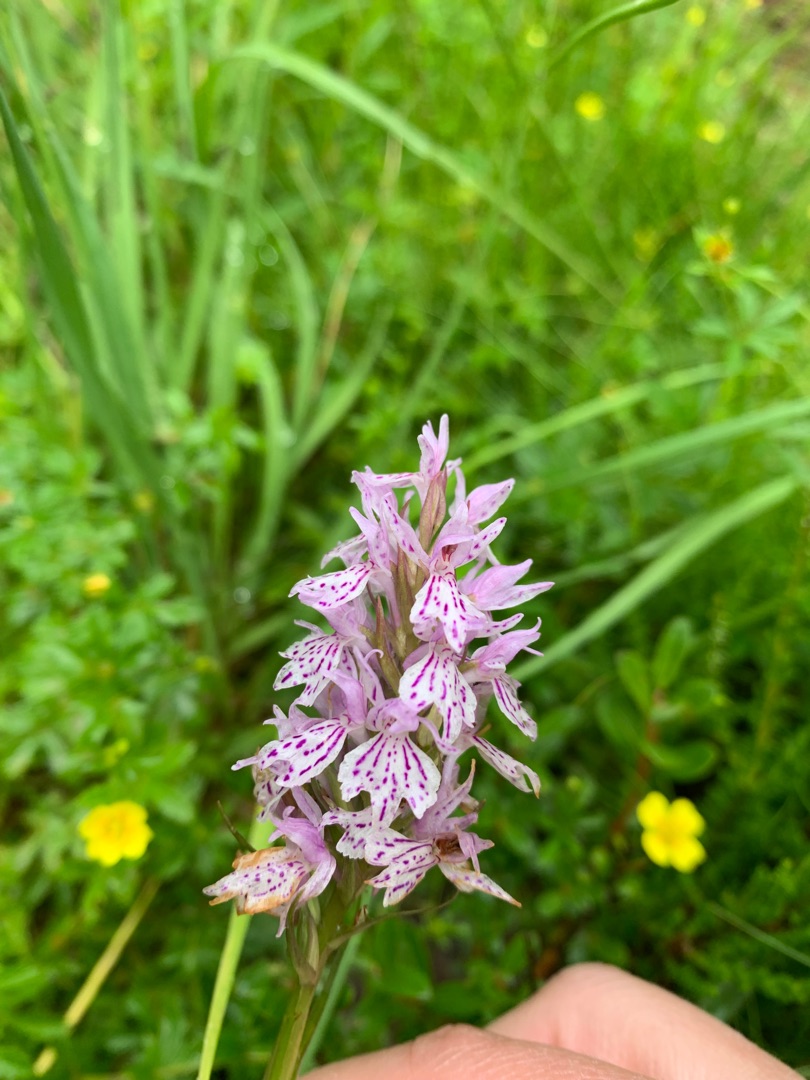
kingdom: Plantae
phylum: Tracheophyta
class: Liliopsida
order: Asparagales
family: Orchidaceae
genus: Dactylorhiza
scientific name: Dactylorhiza maculata
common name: Plettet gøgeurt
